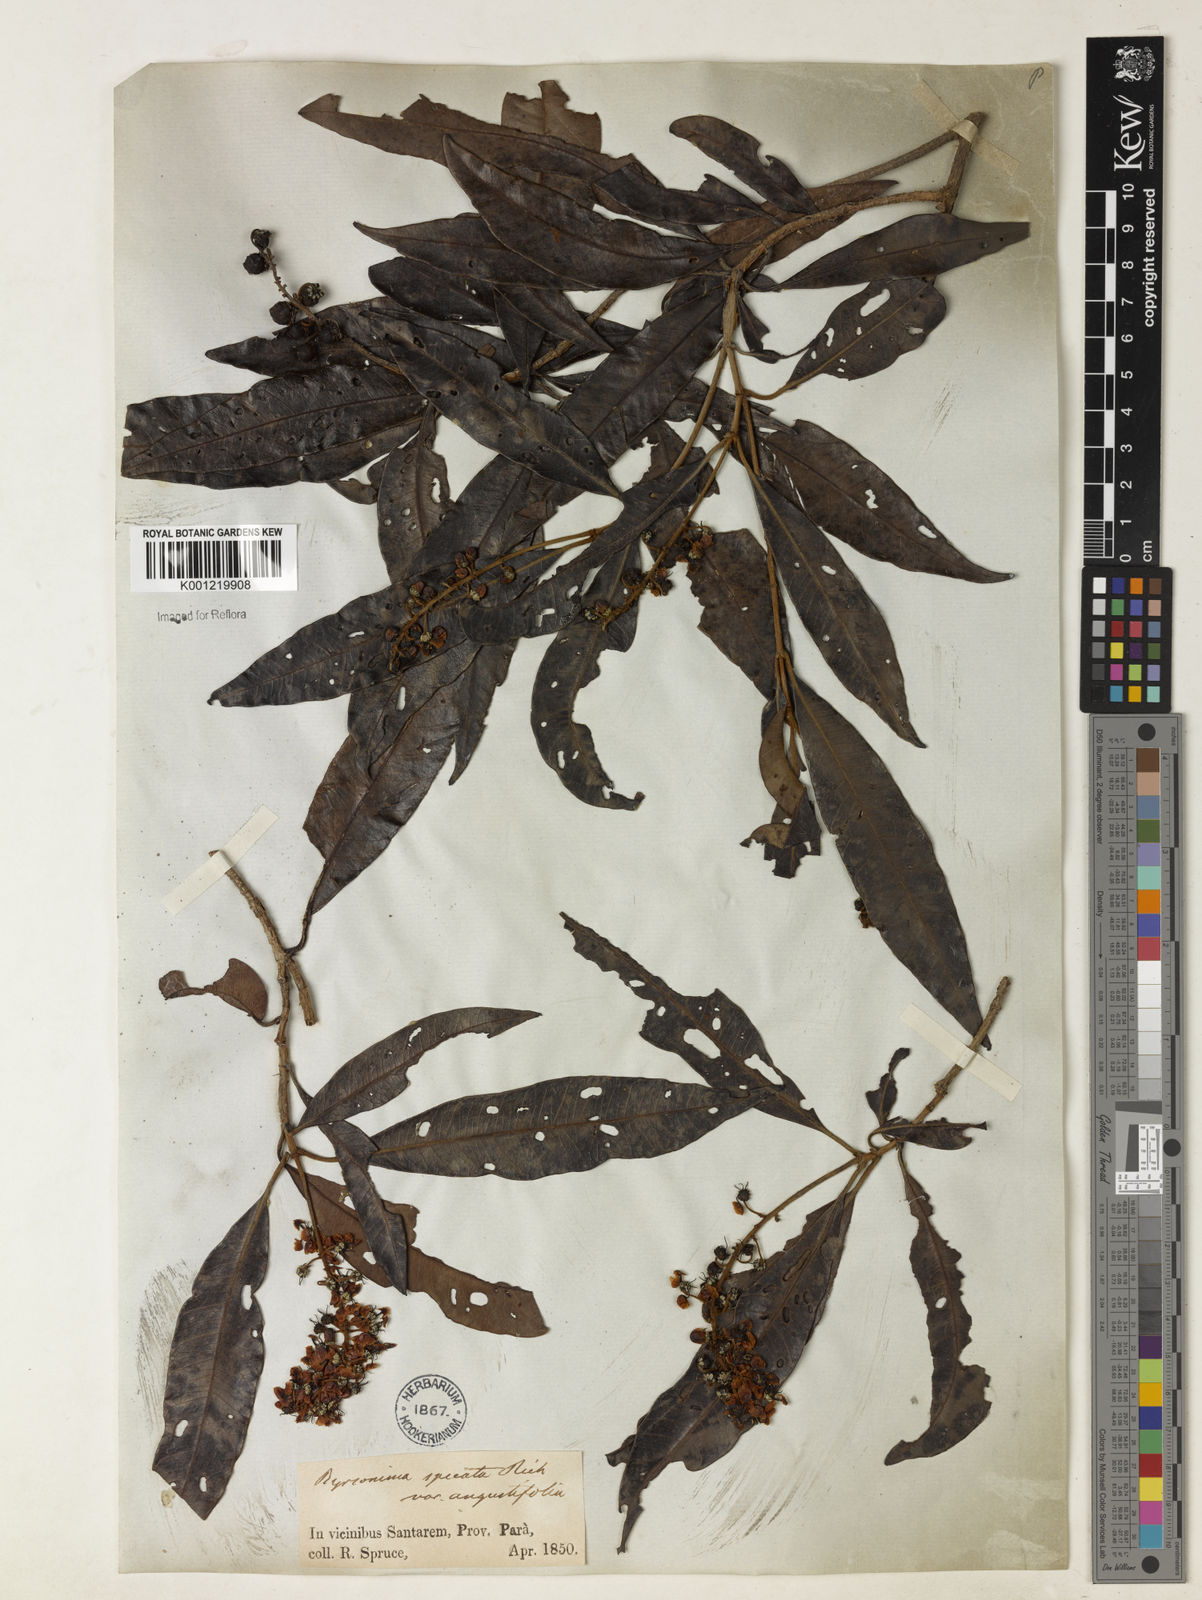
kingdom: Plantae
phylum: Tracheophyta
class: Magnoliopsida
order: Malpighiales
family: Malpighiaceae
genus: Byrsonima
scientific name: Byrsonima
